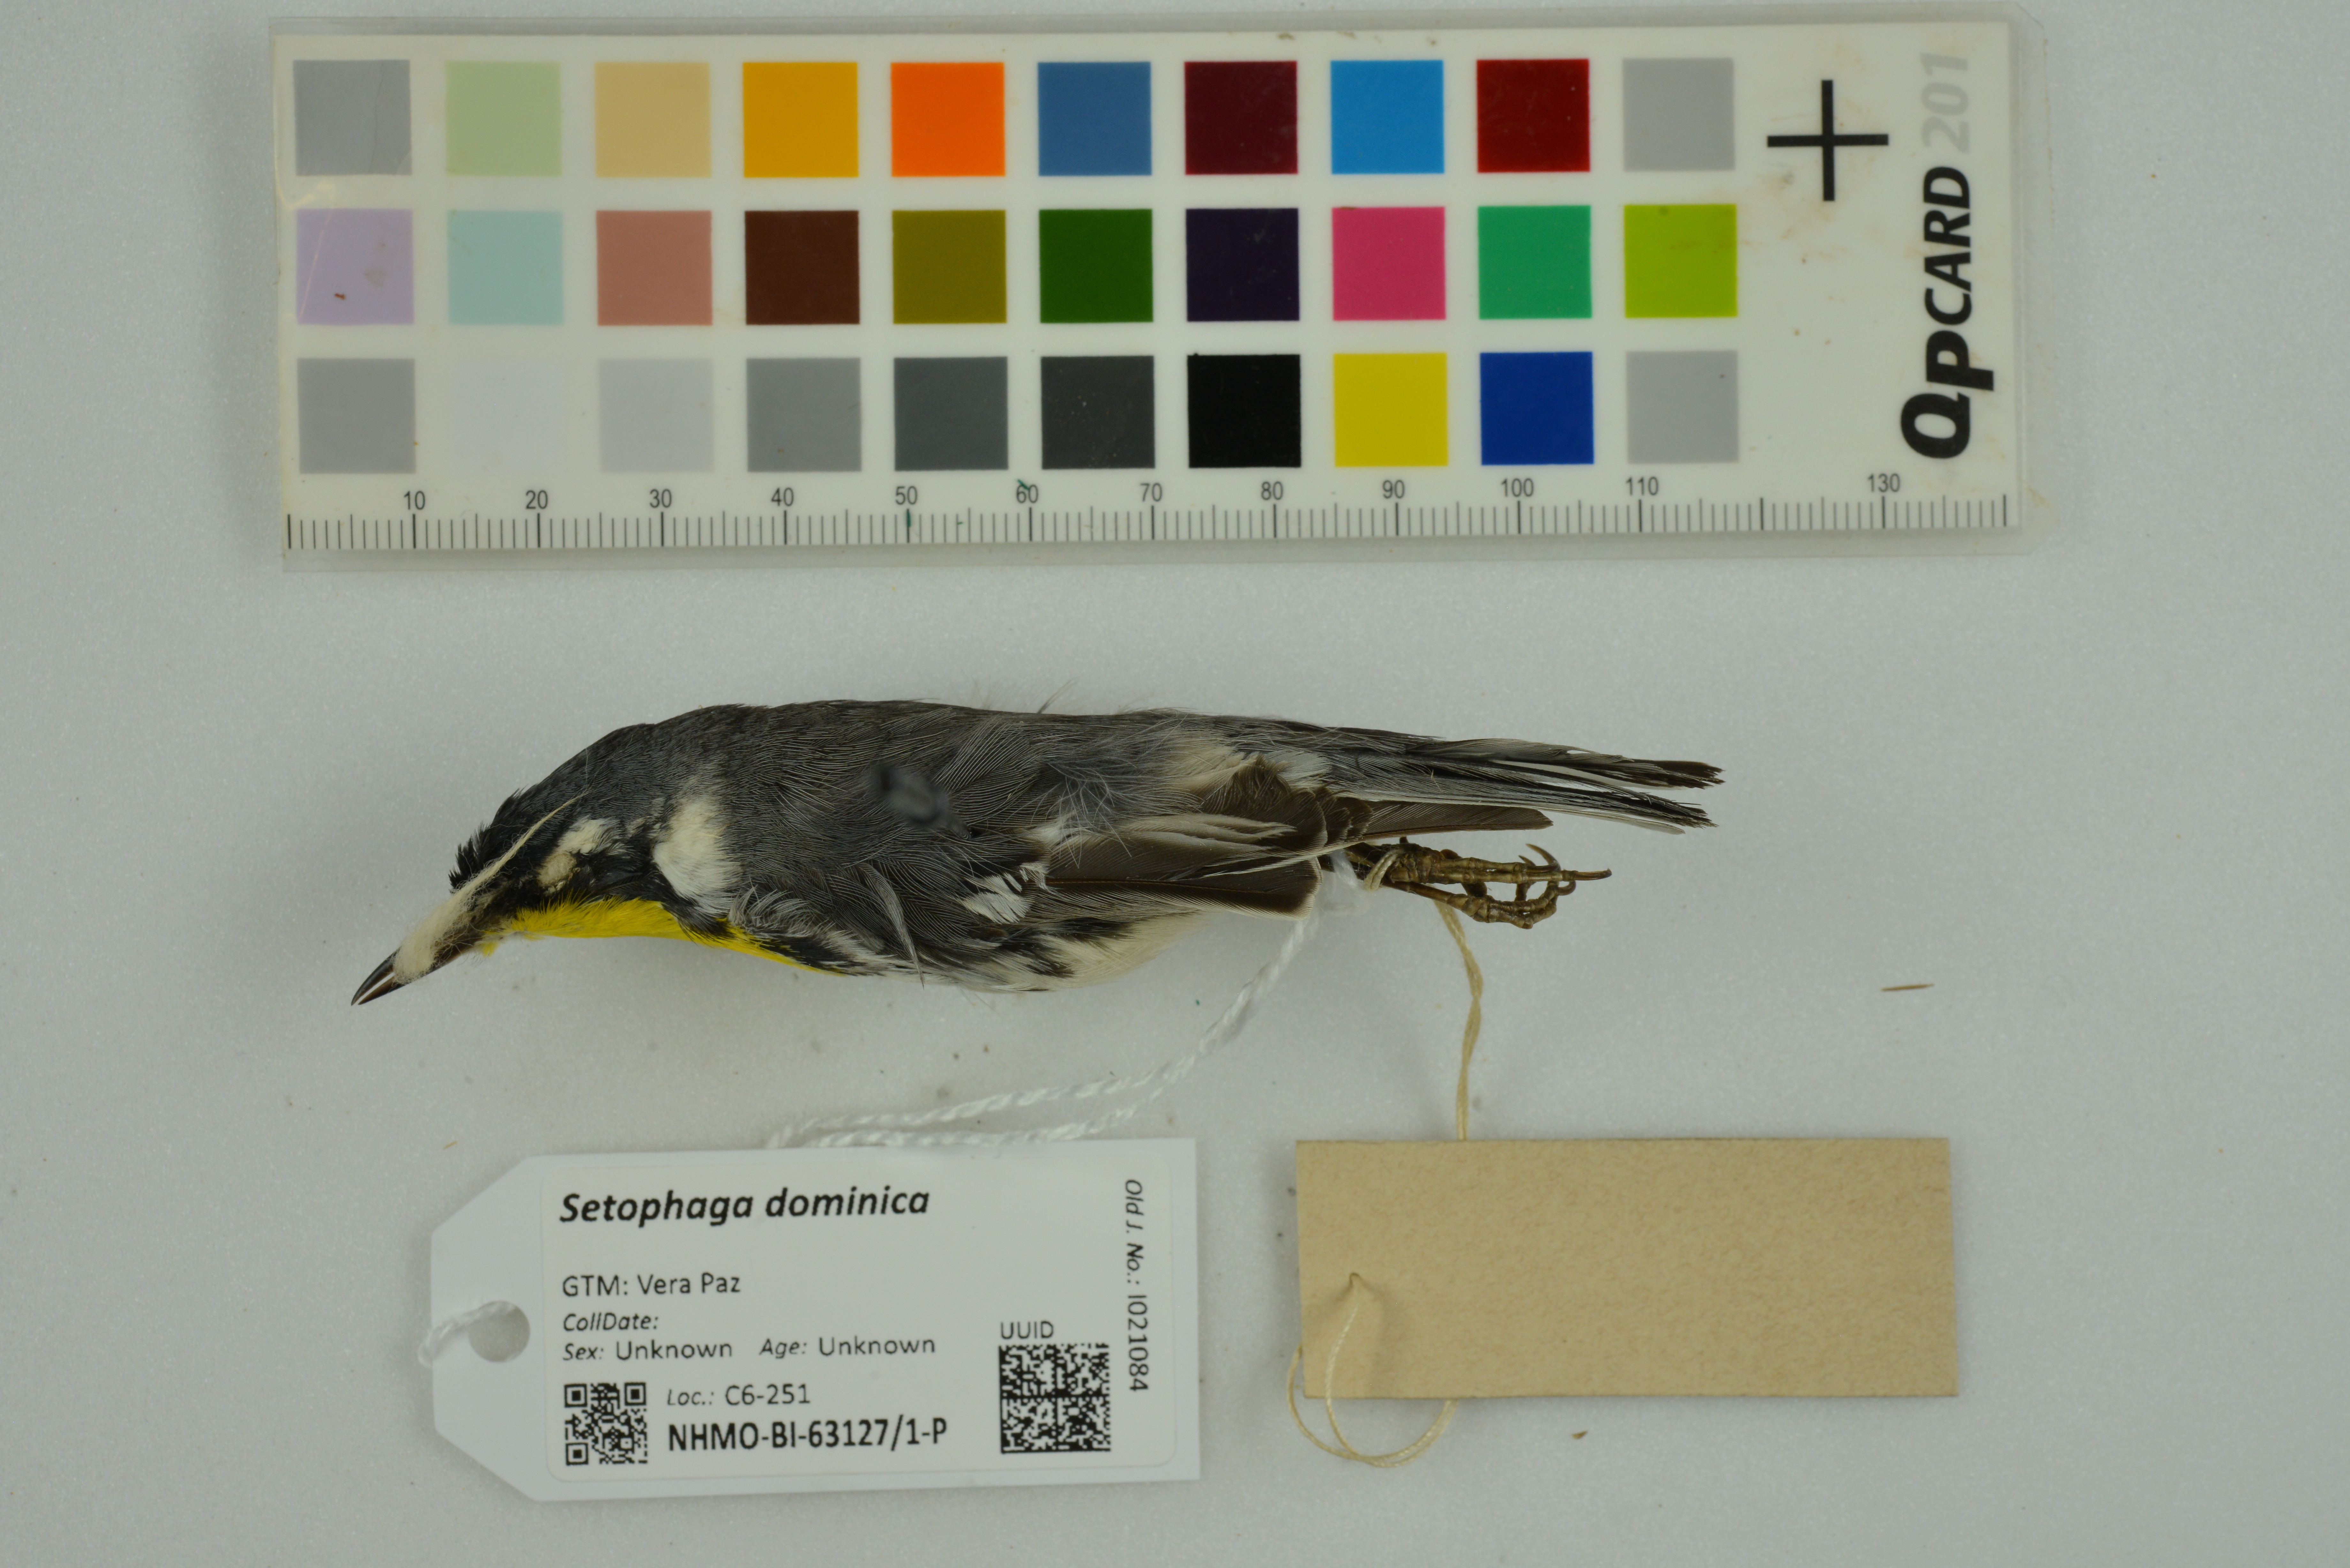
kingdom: Animalia
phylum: Chordata
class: Aves
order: Passeriformes
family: Parulidae
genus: Setophaga
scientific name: Setophaga dominica
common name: Yellow-throated warbler
